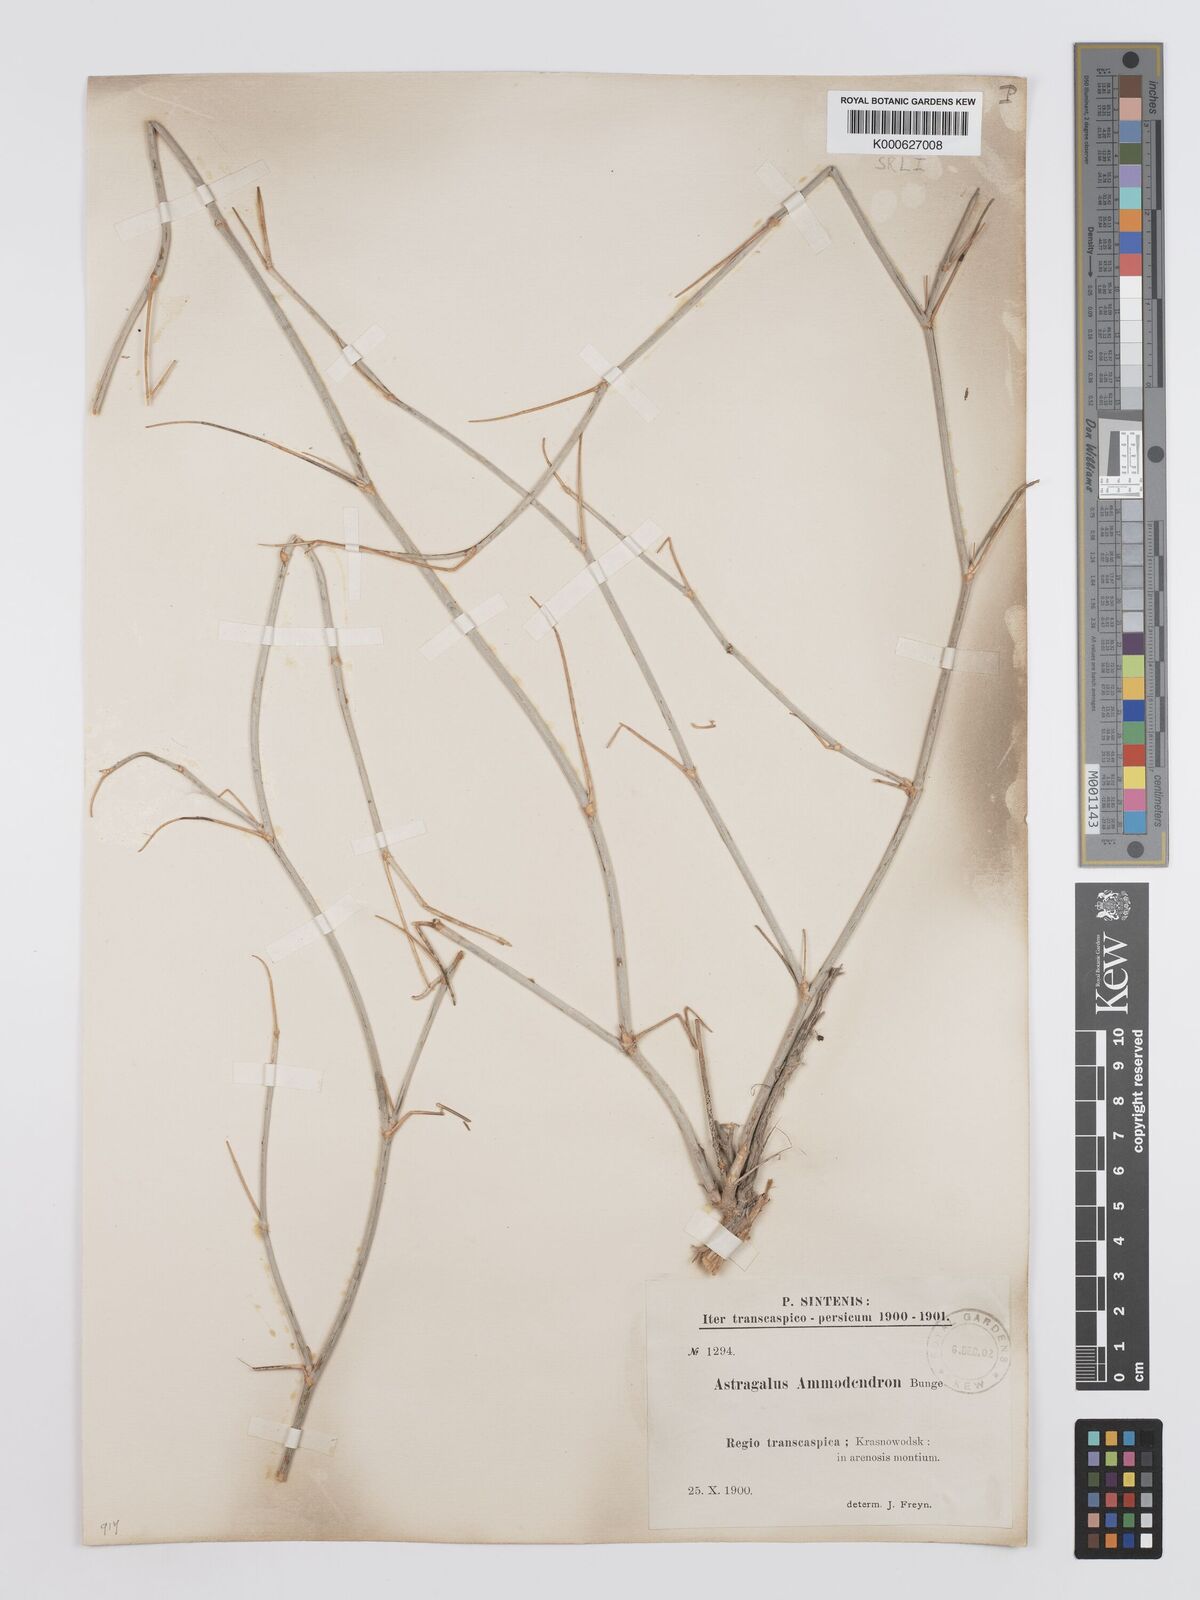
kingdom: Plantae
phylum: Tracheophyta
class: Magnoliopsida
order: Fabales
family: Fabaceae
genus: Astragalus
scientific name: Astragalus ammodendron
